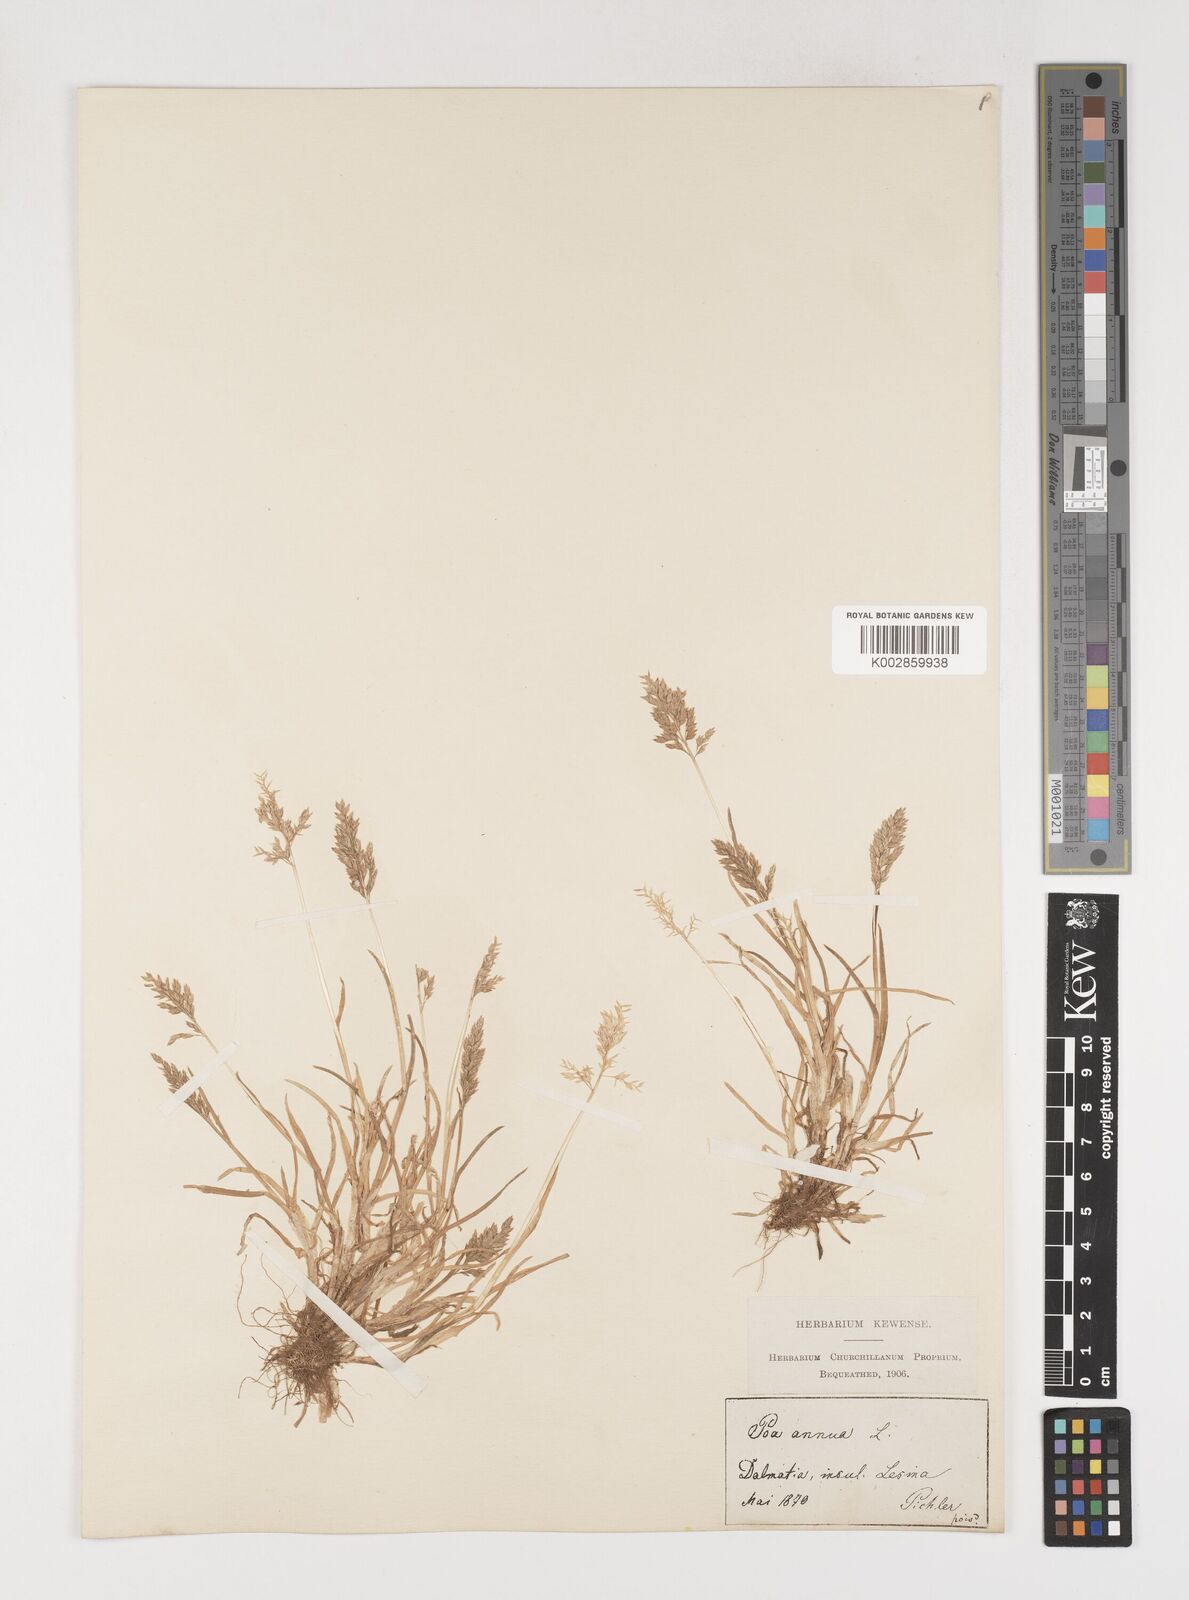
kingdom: Plantae
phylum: Tracheophyta
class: Liliopsida
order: Poales
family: Poaceae
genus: Poa
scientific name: Poa annua
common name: Annual bluegrass
